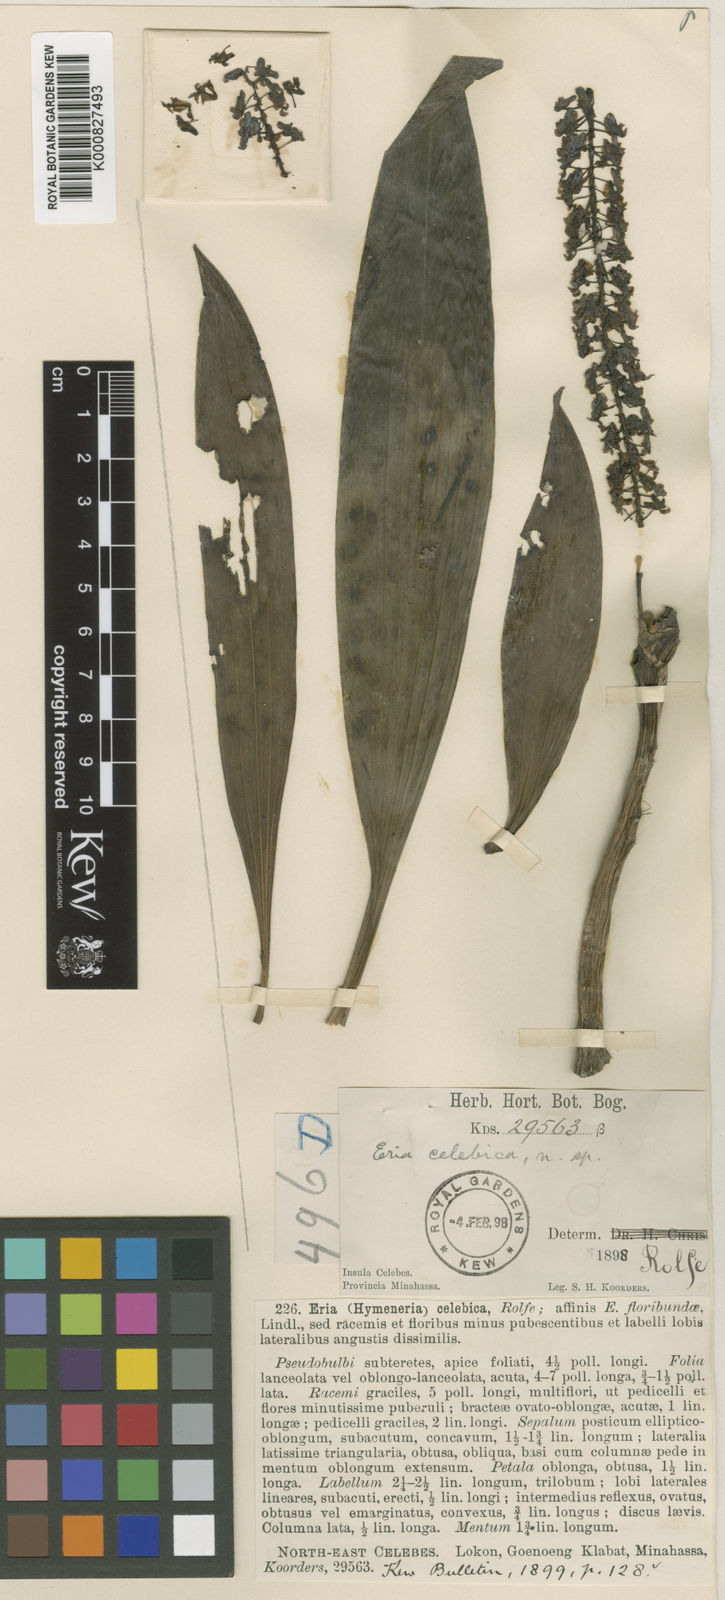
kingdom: Plantae
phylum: Tracheophyta
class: Liliopsida
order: Asparagales
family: Orchidaceae
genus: Pinalia
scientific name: Pinalia celebica
